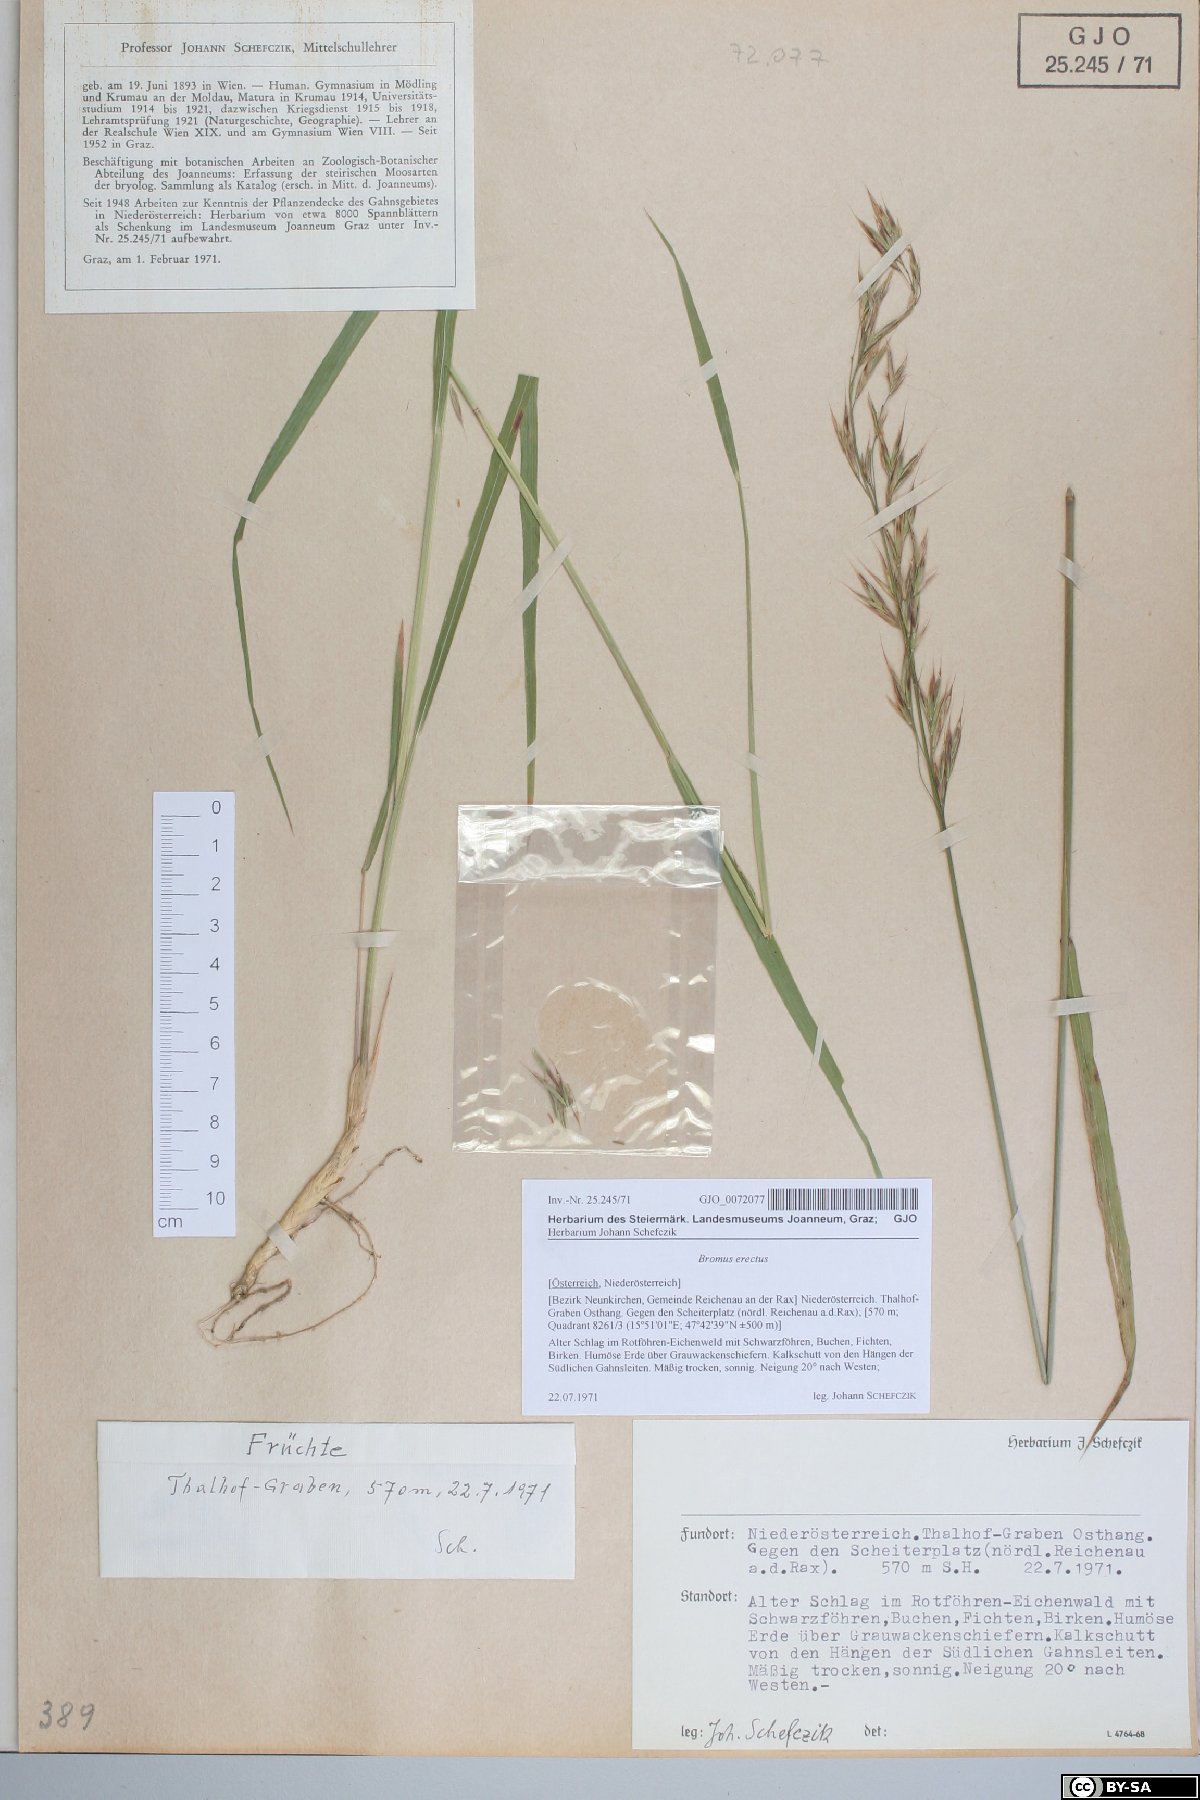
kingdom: Plantae
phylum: Tracheophyta
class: Liliopsida
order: Poales
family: Poaceae
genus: Bromus
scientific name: Bromus erectus
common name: Erect brome
